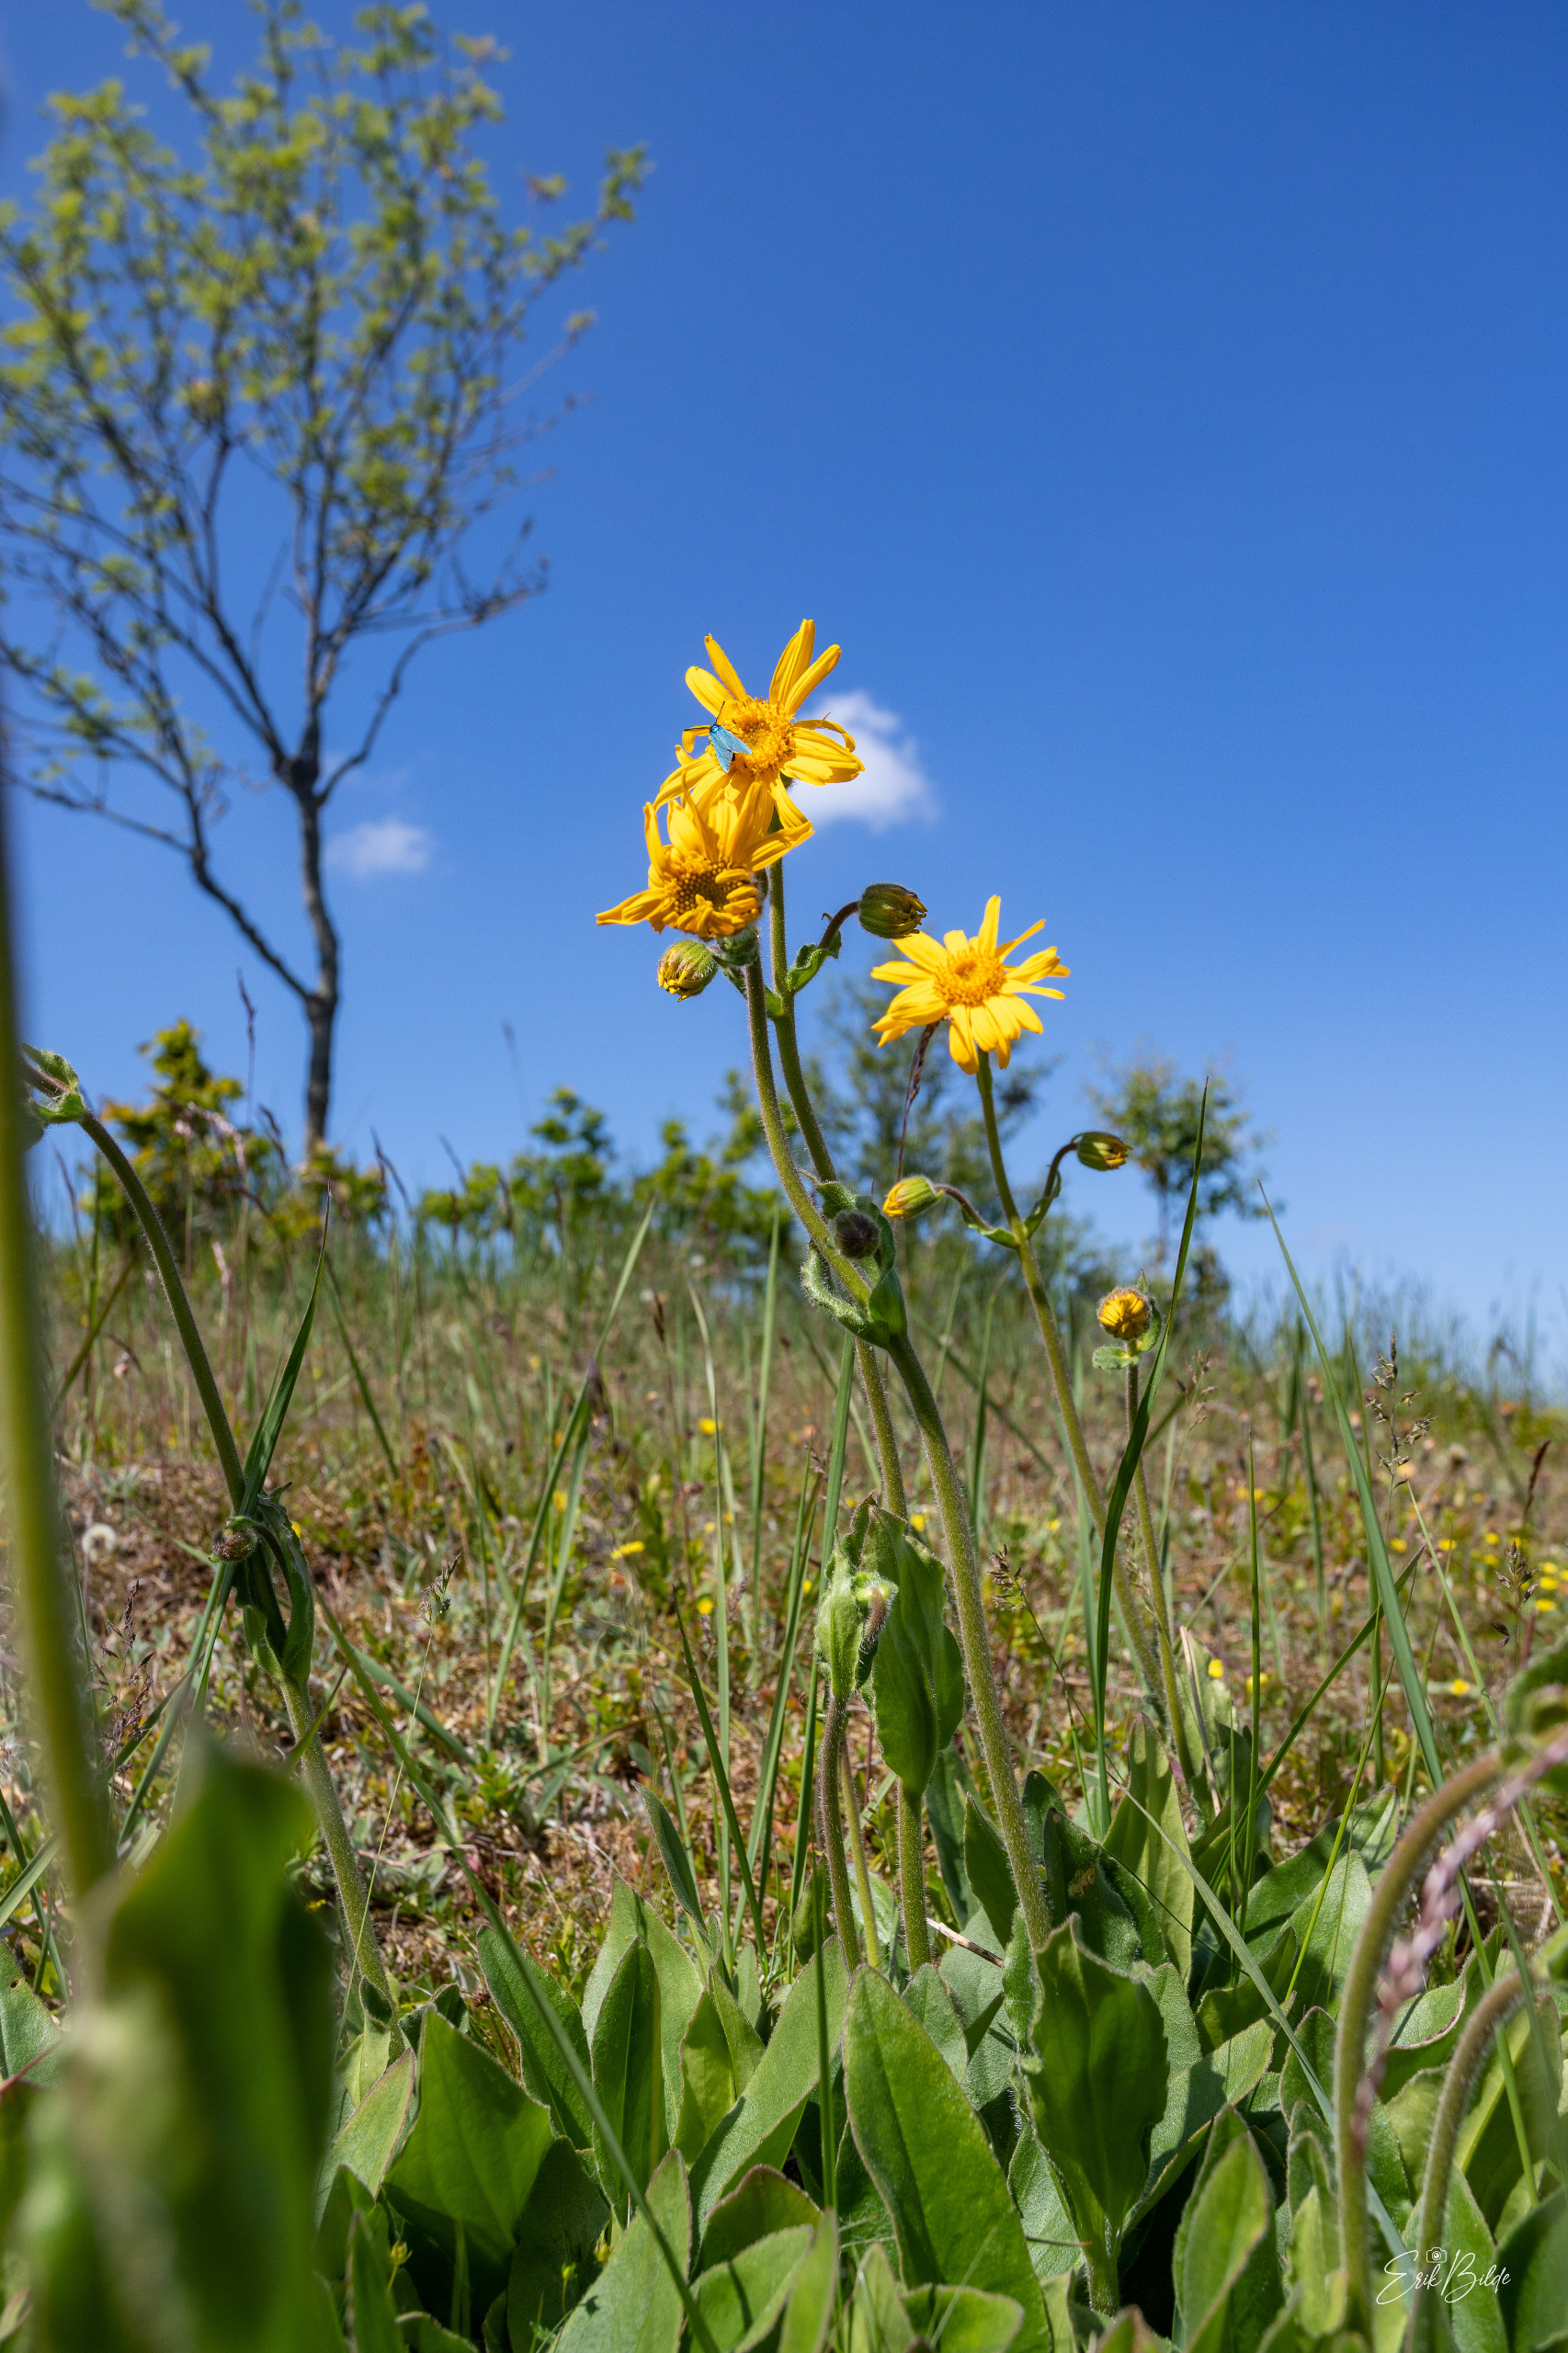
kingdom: Plantae
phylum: Tracheophyta
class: Magnoliopsida
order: Asterales
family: Asteraceae
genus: Arnica
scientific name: Arnica montana
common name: Guldblomme
